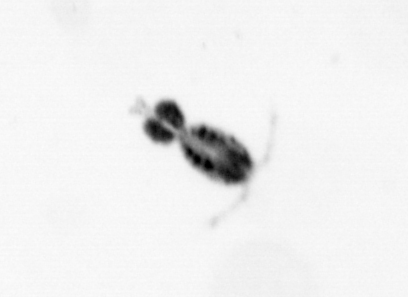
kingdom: Animalia
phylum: Arthropoda
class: Copepoda
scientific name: Copepoda
